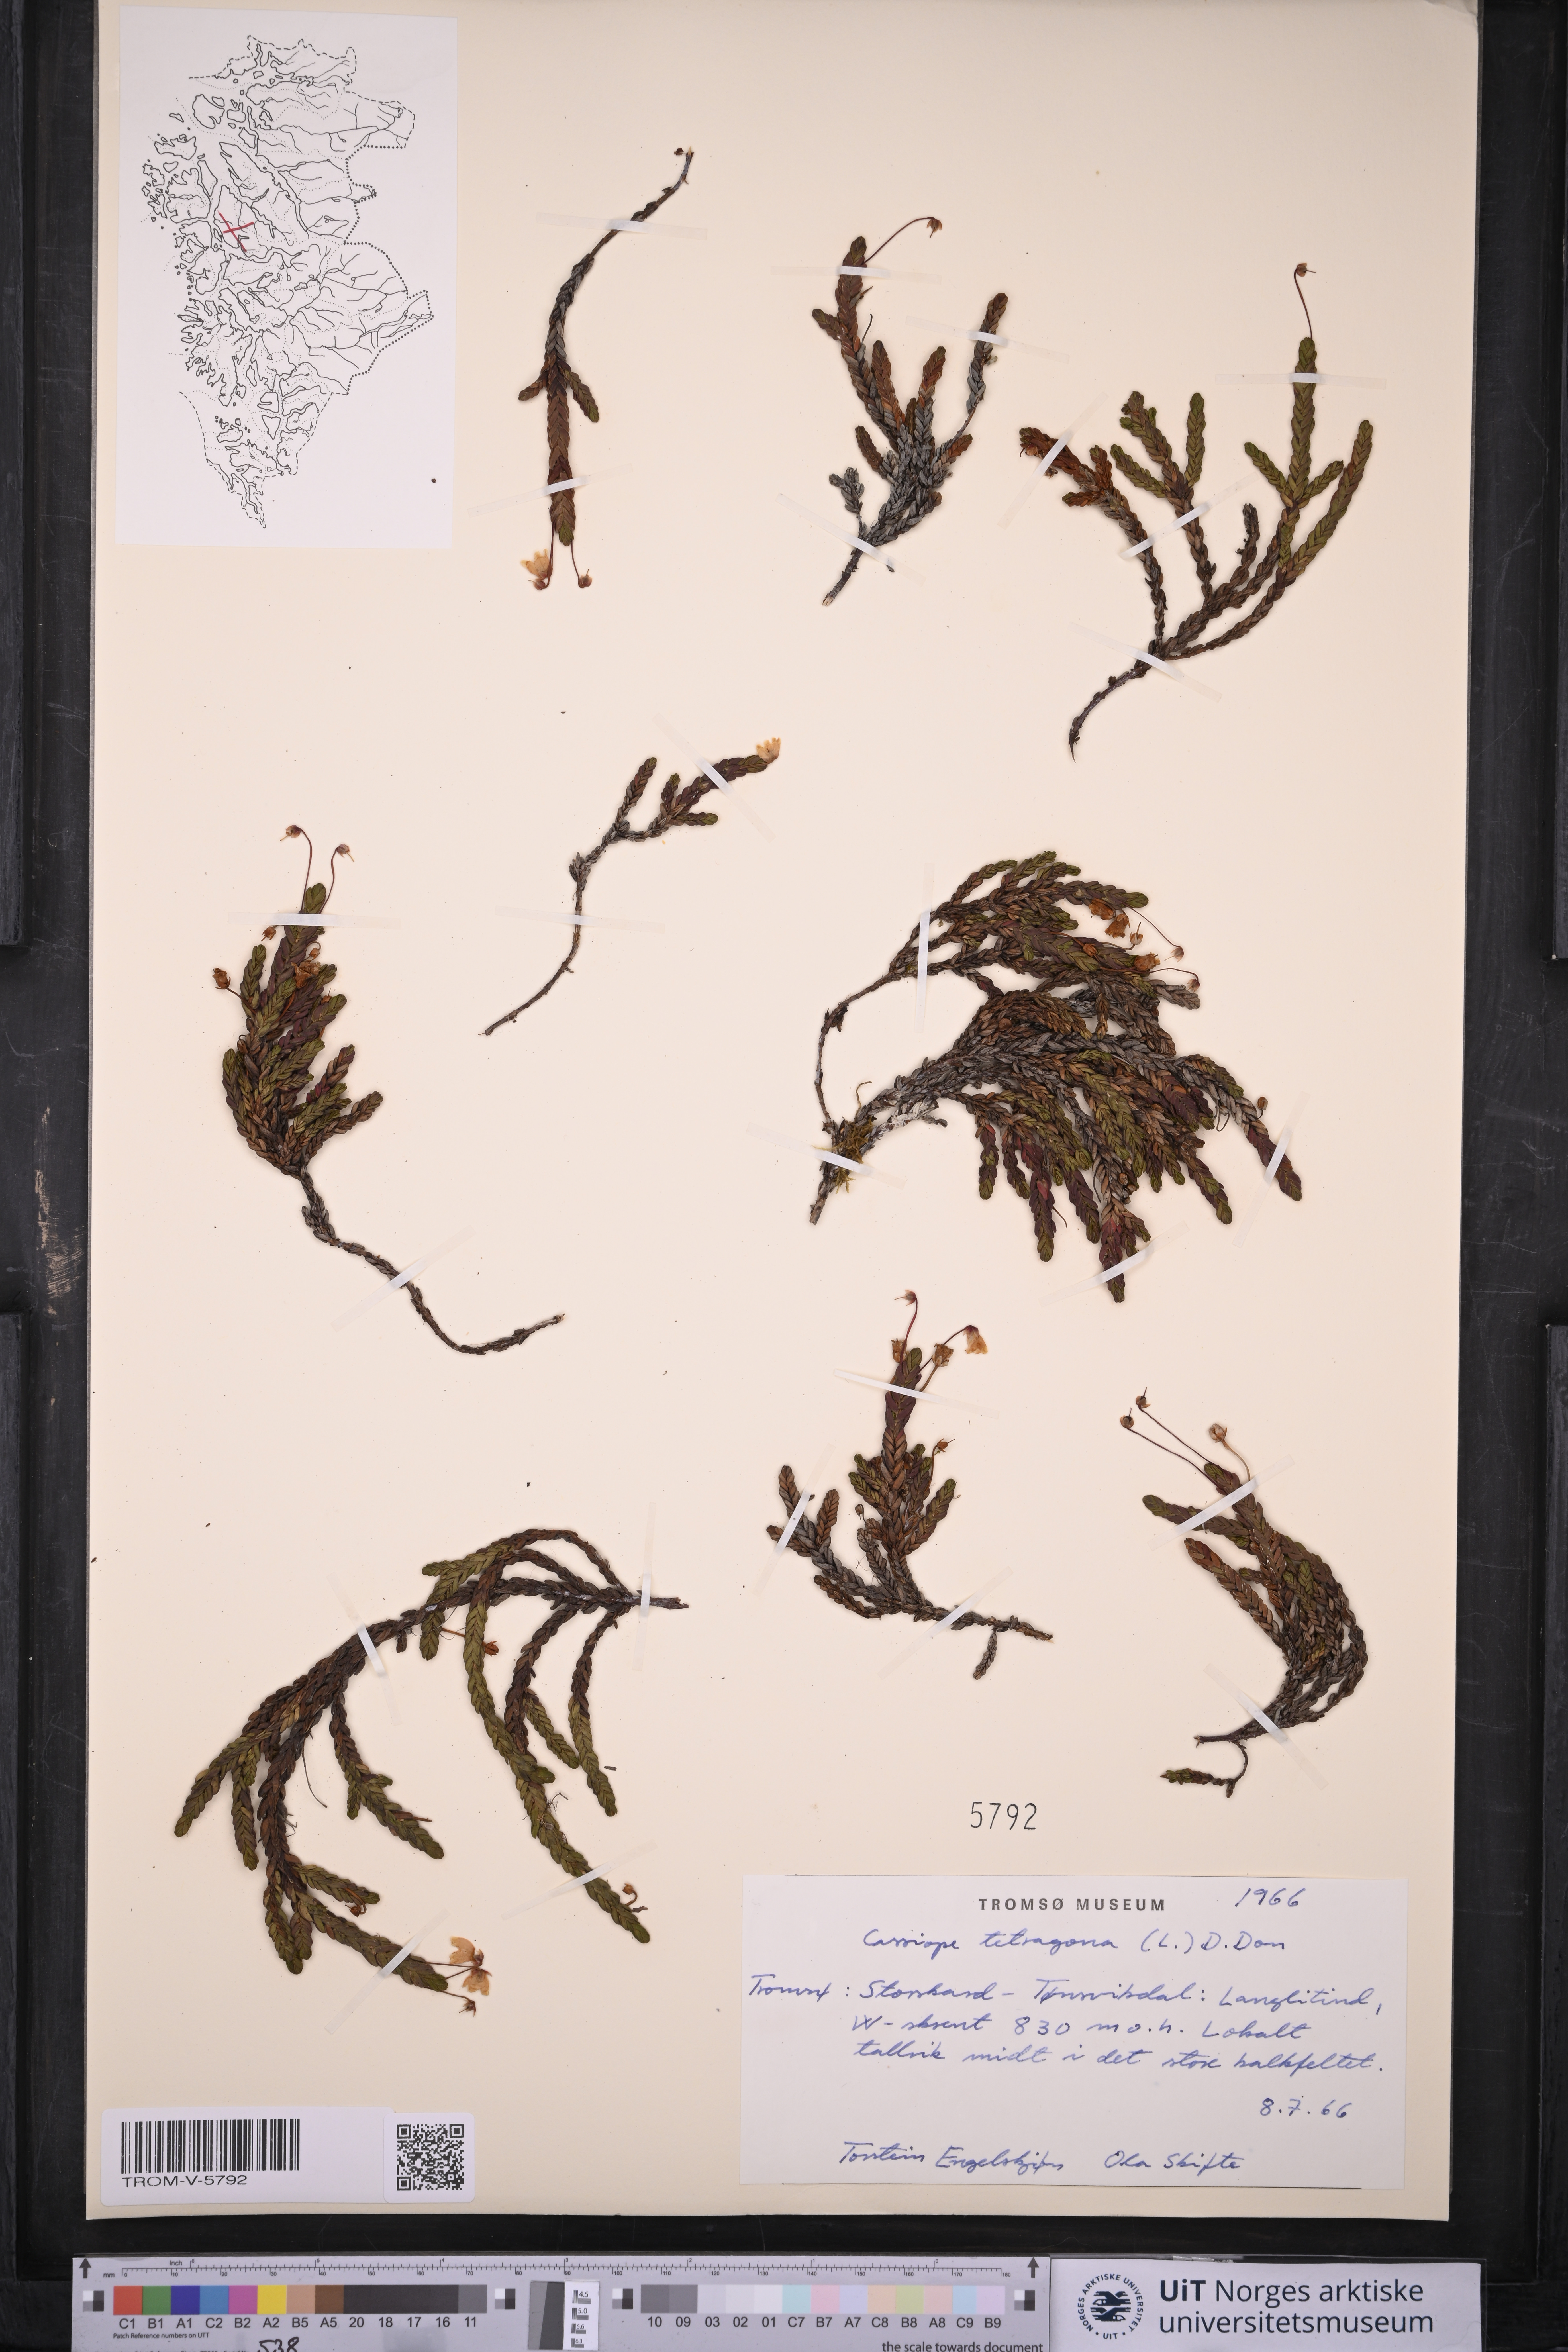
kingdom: Plantae
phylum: Tracheophyta
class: Magnoliopsida
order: Ericales
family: Ericaceae
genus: Cassiope
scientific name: Cassiope tetragona
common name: Arctic bell heather
